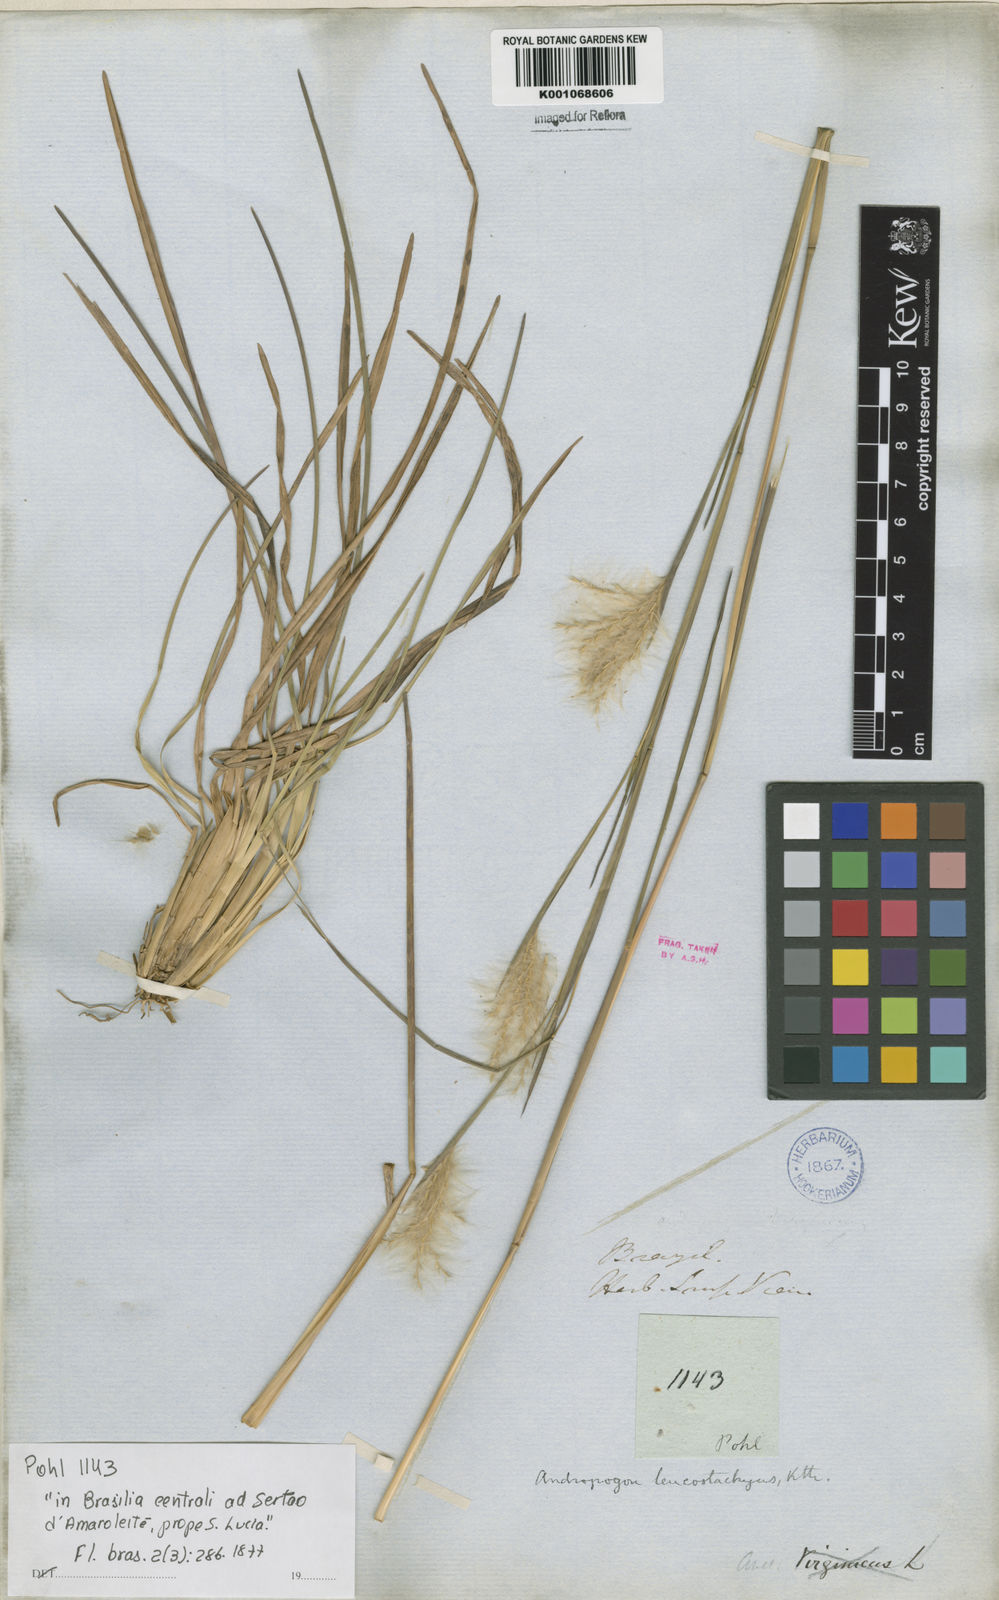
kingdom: Plantae
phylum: Tracheophyta
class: Liliopsida
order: Poales
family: Poaceae
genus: Andropogon
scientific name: Andropogon selloanus
